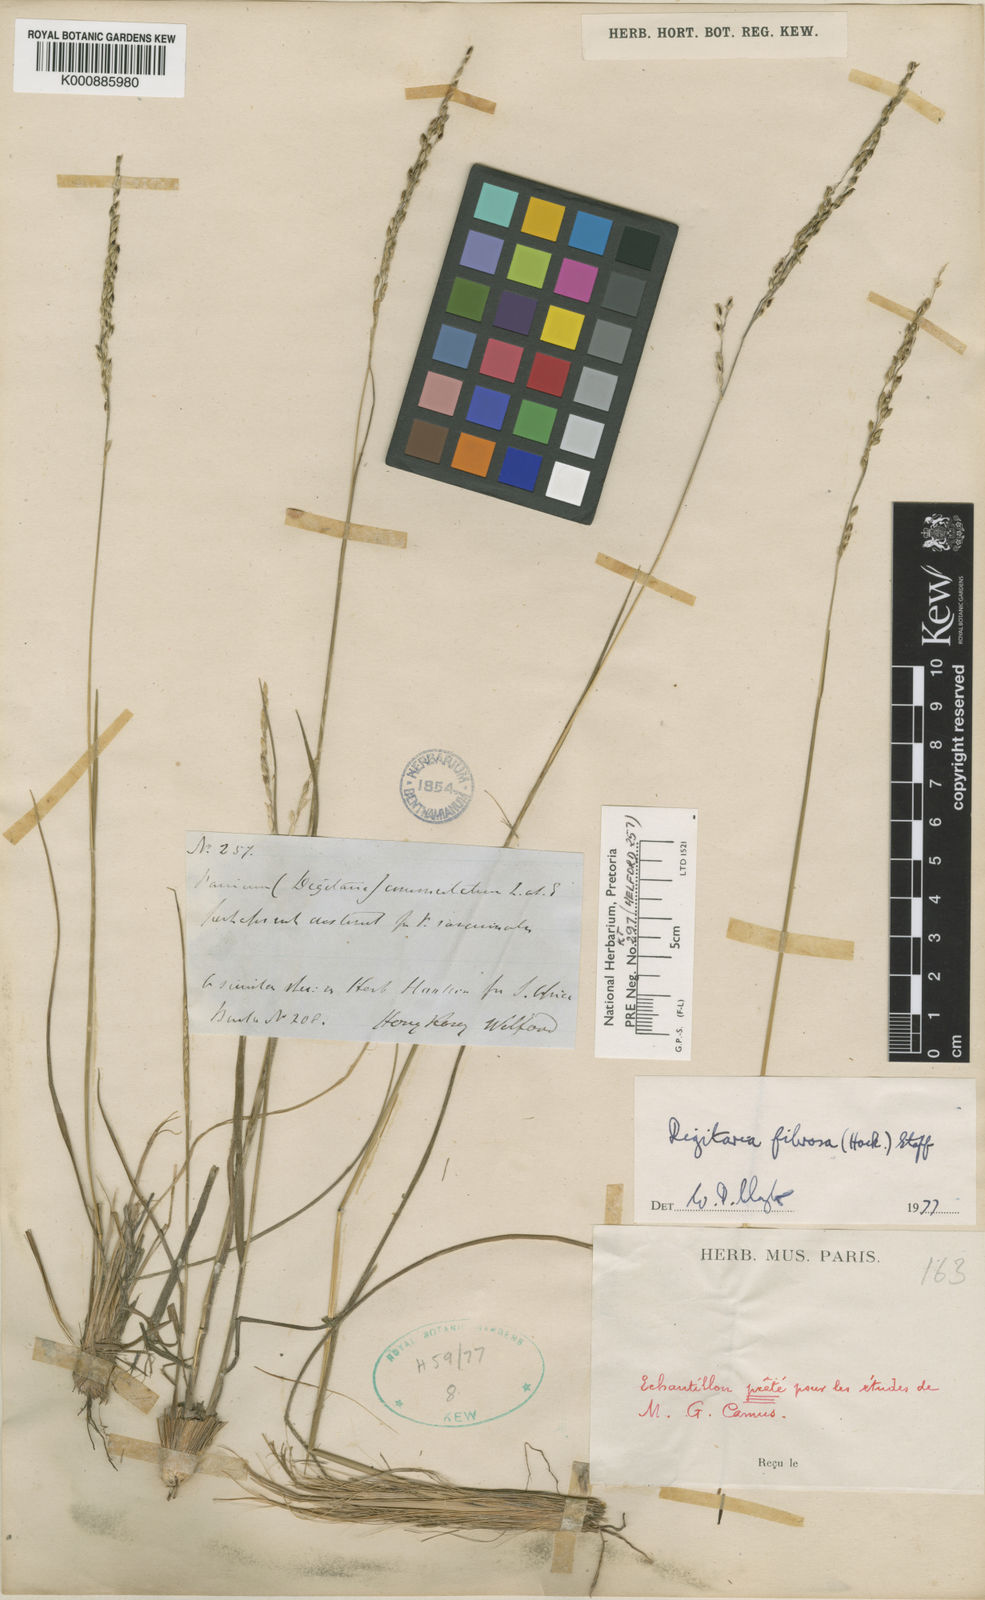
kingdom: Plantae
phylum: Tracheophyta
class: Liliopsida
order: Poales
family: Poaceae
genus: Digitaria
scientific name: Digitaria setifolia
